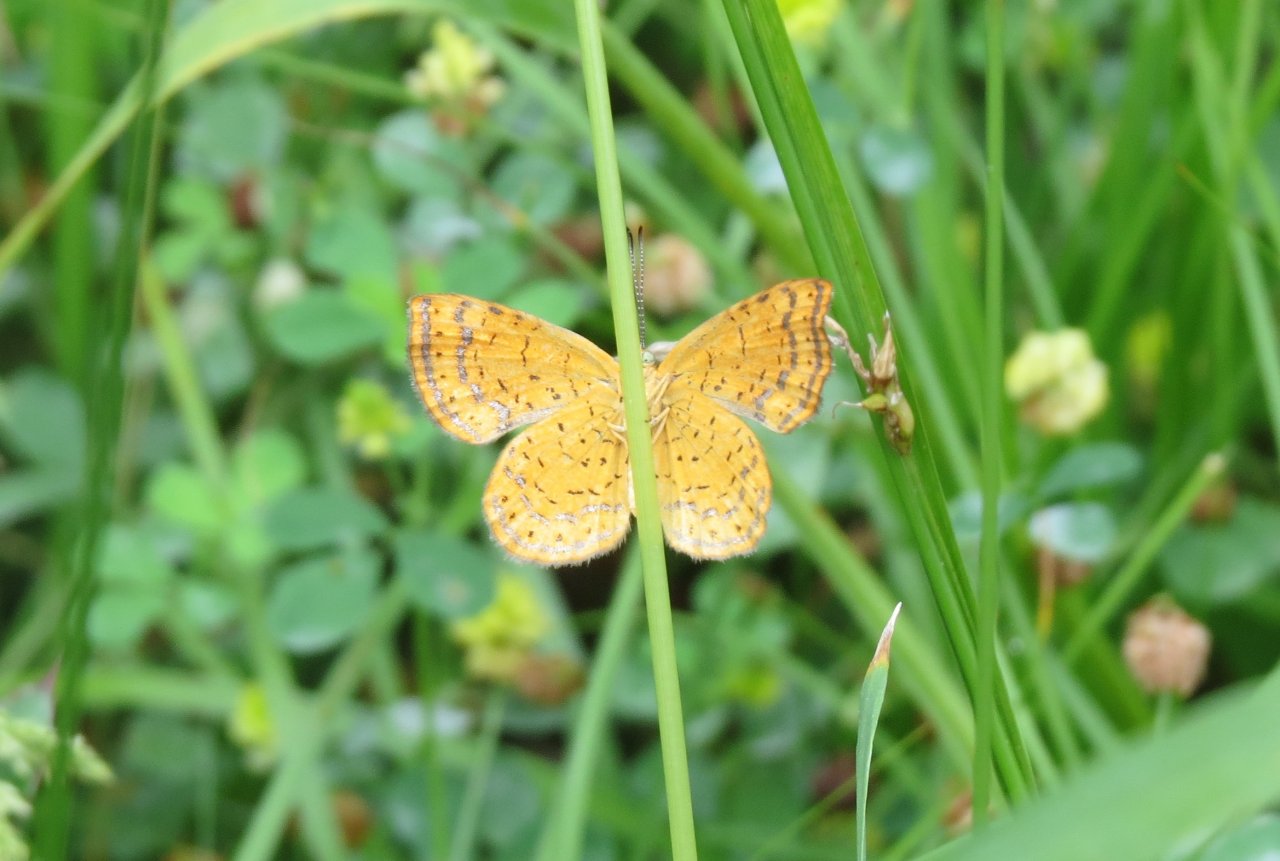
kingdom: Animalia
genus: Calephelis
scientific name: Calephelis borealis
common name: Northern Metalmark
